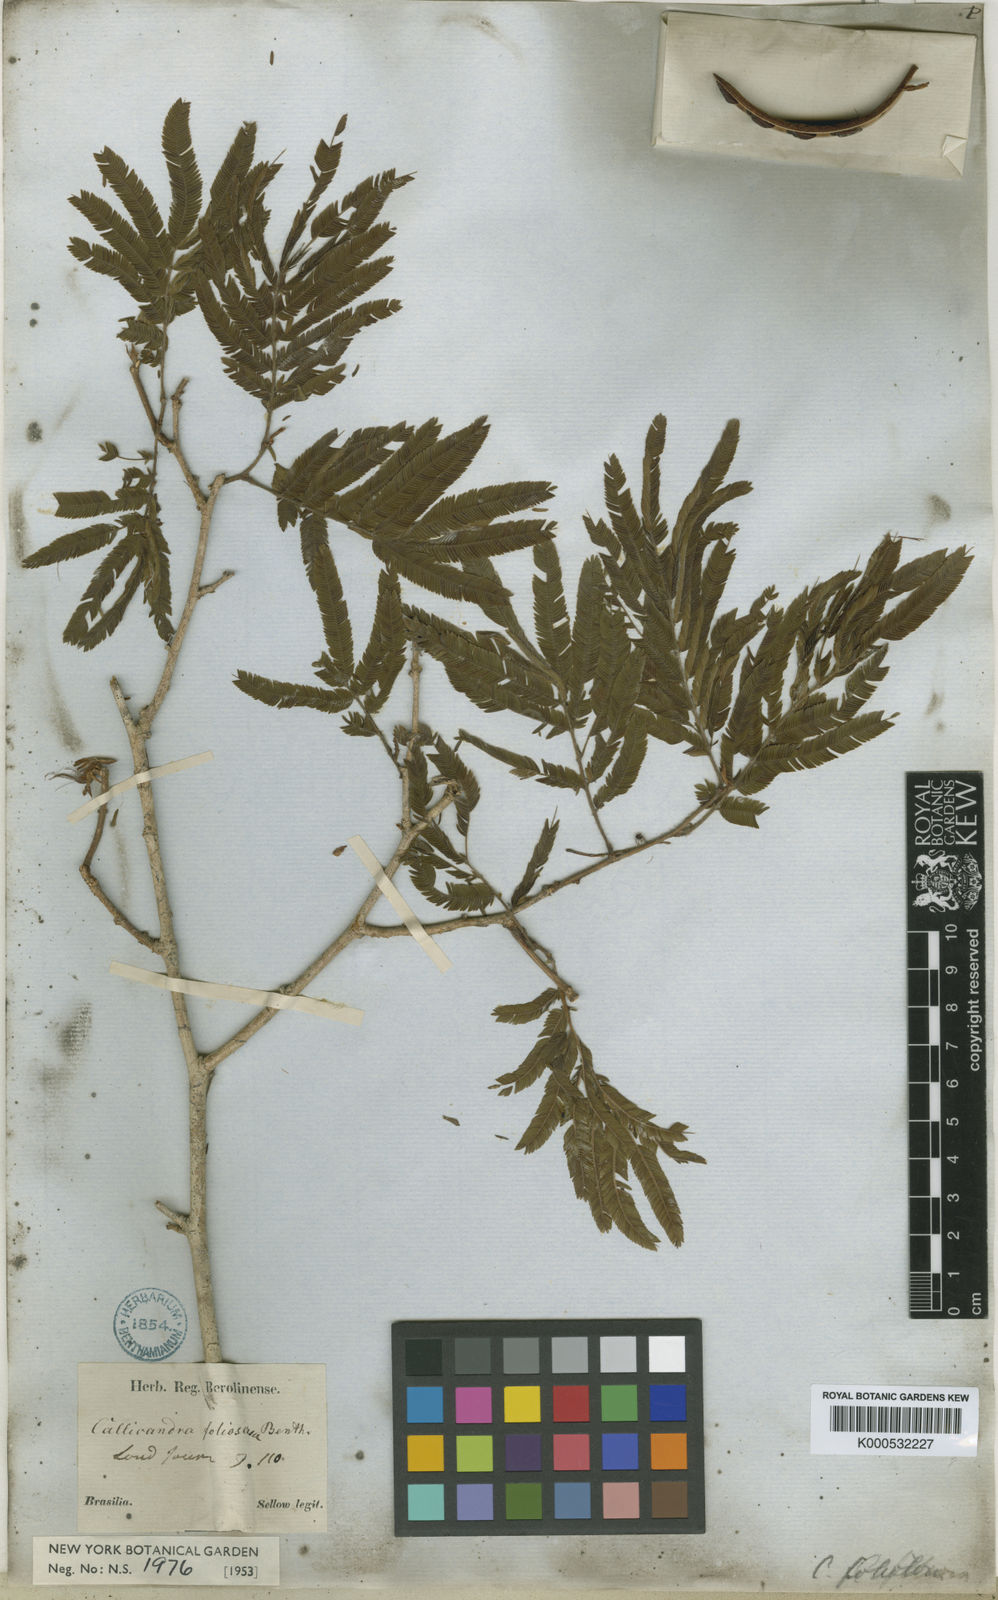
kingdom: Plantae
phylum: Tracheophyta
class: Magnoliopsida
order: Fabales
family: Fabaceae
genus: Calliandra
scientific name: Calliandra
